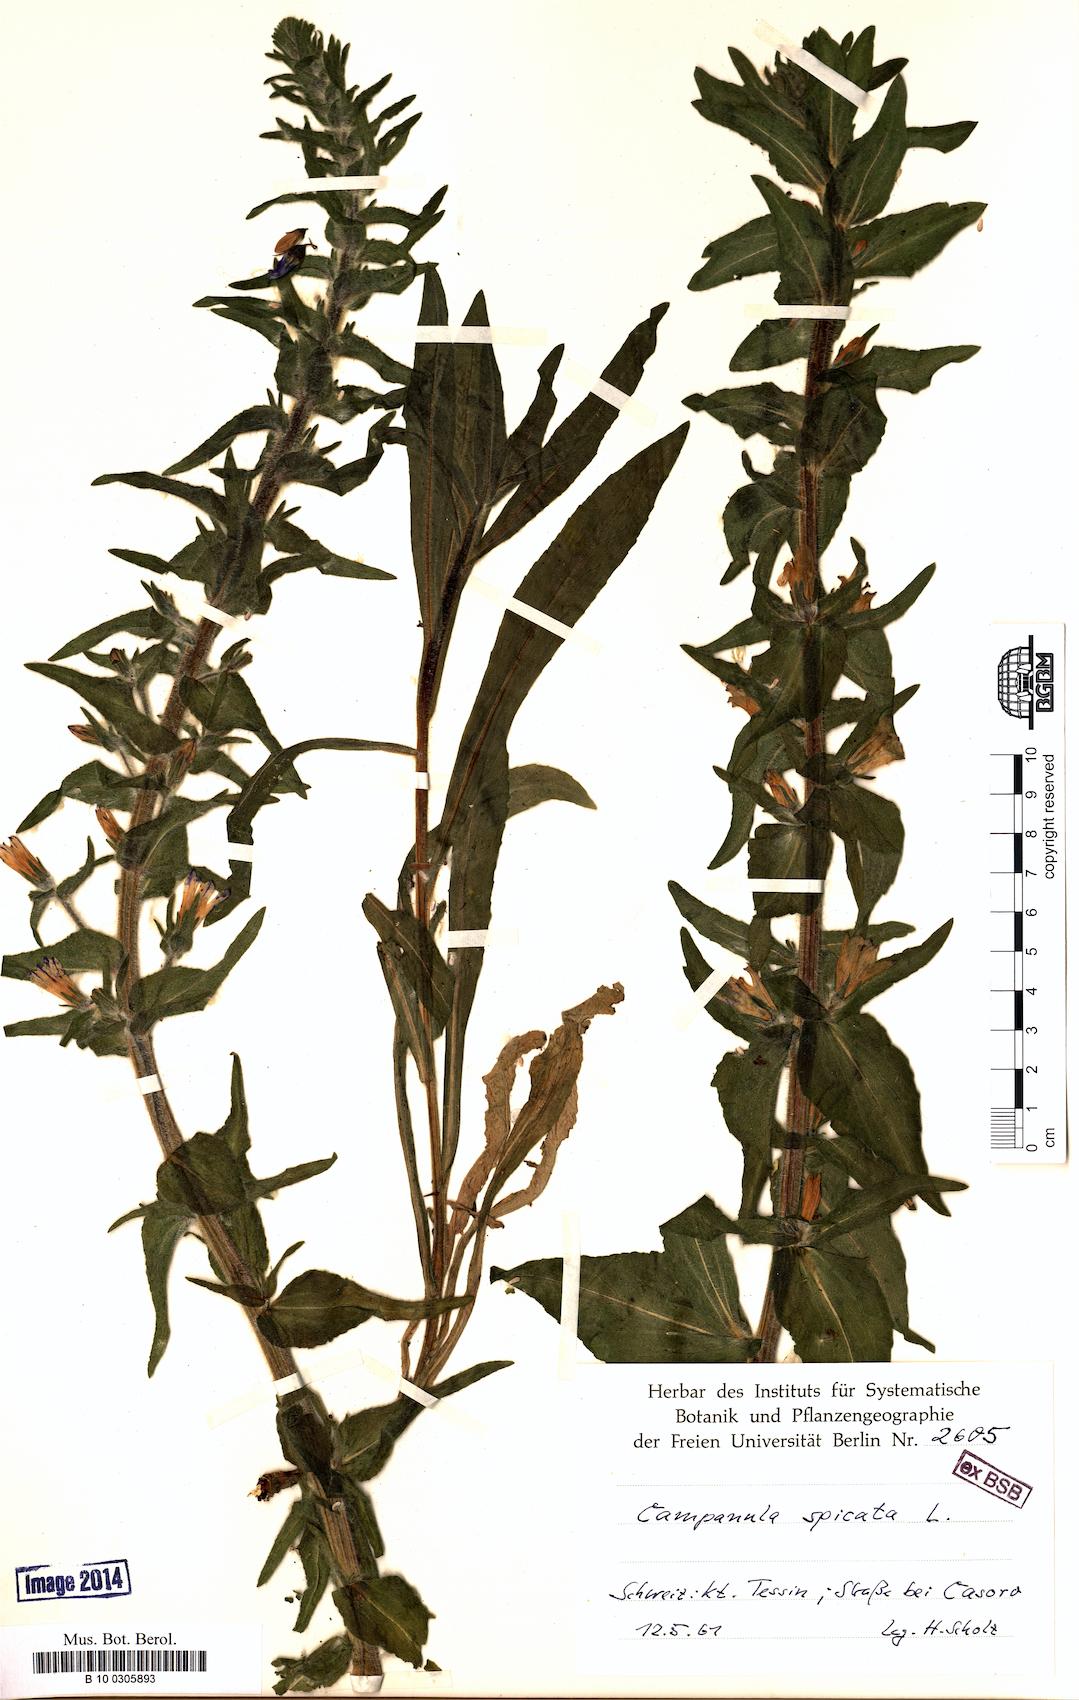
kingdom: Plantae
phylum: Tracheophyta
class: Magnoliopsida
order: Asterales
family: Campanulaceae
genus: Campanula
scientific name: Campanula spicata
